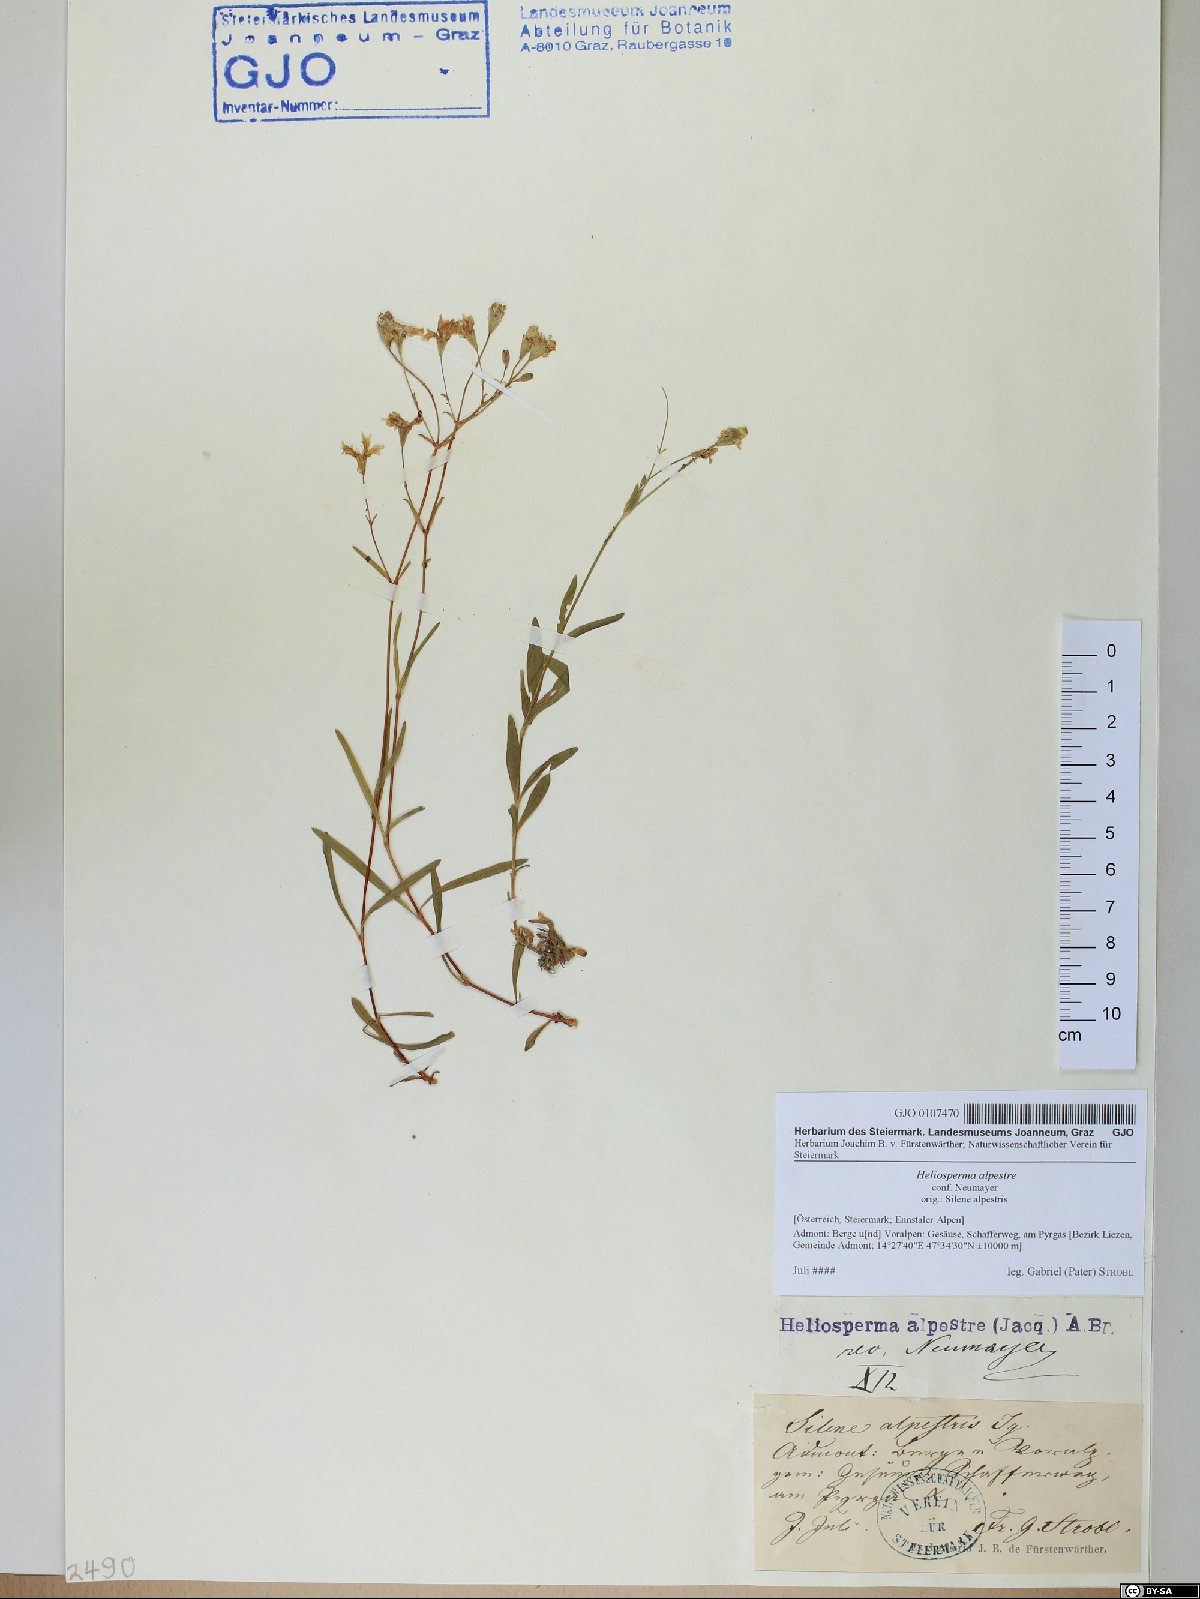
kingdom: Plantae
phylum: Tracheophyta
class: Magnoliopsida
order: Caryophyllales
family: Caryophyllaceae
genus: Heliosperma
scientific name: Heliosperma alpestre
